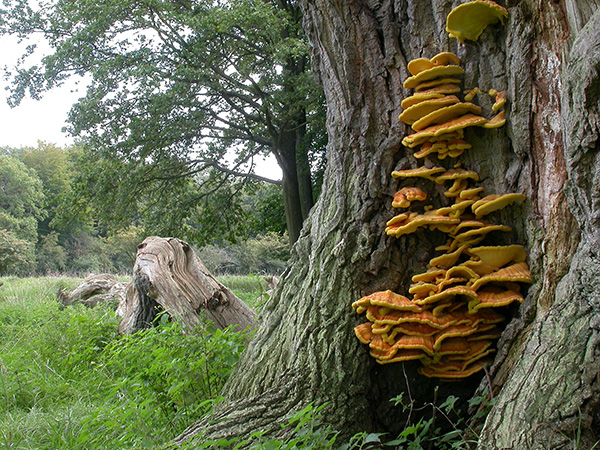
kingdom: Fungi
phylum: Basidiomycota
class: Agaricomycetes
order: Polyporales
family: Laetiporaceae
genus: Laetiporus
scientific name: Laetiporus sulphureus
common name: svovlporesvamp
